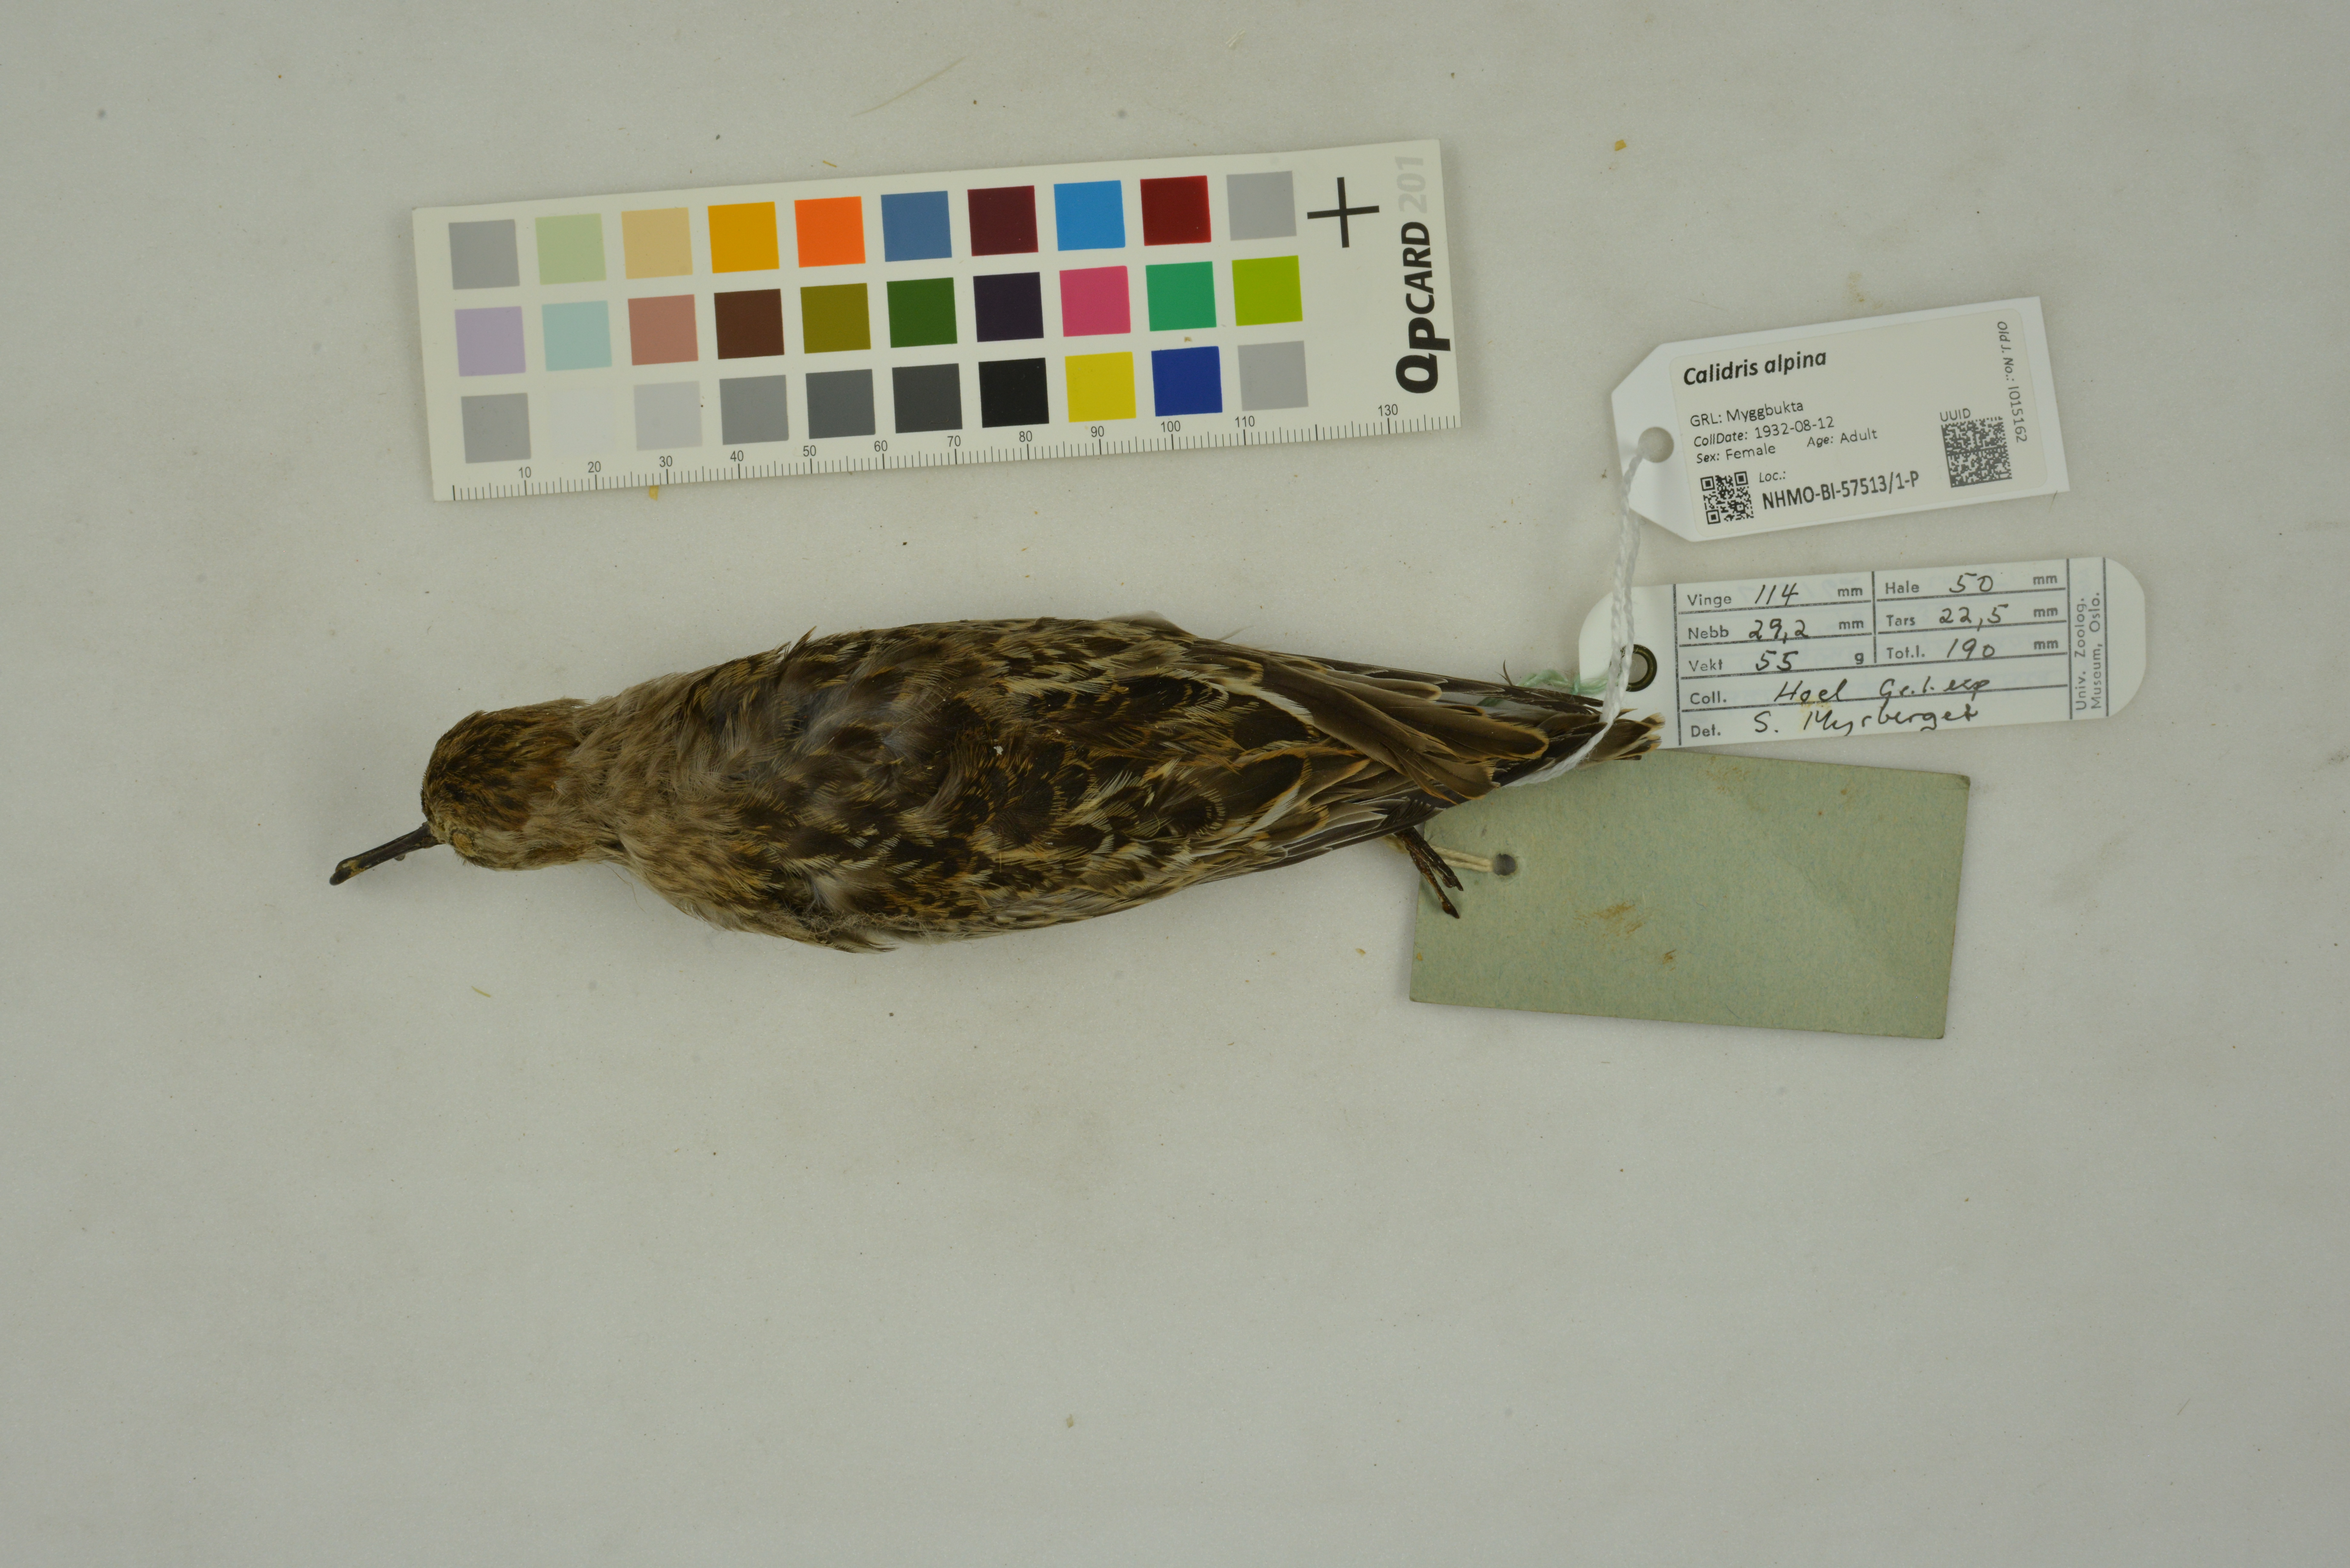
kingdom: Animalia
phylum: Chordata
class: Aves
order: Charadriiformes
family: Scolopacidae
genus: Calidris
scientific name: Calidris alpina
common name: Dunlin
